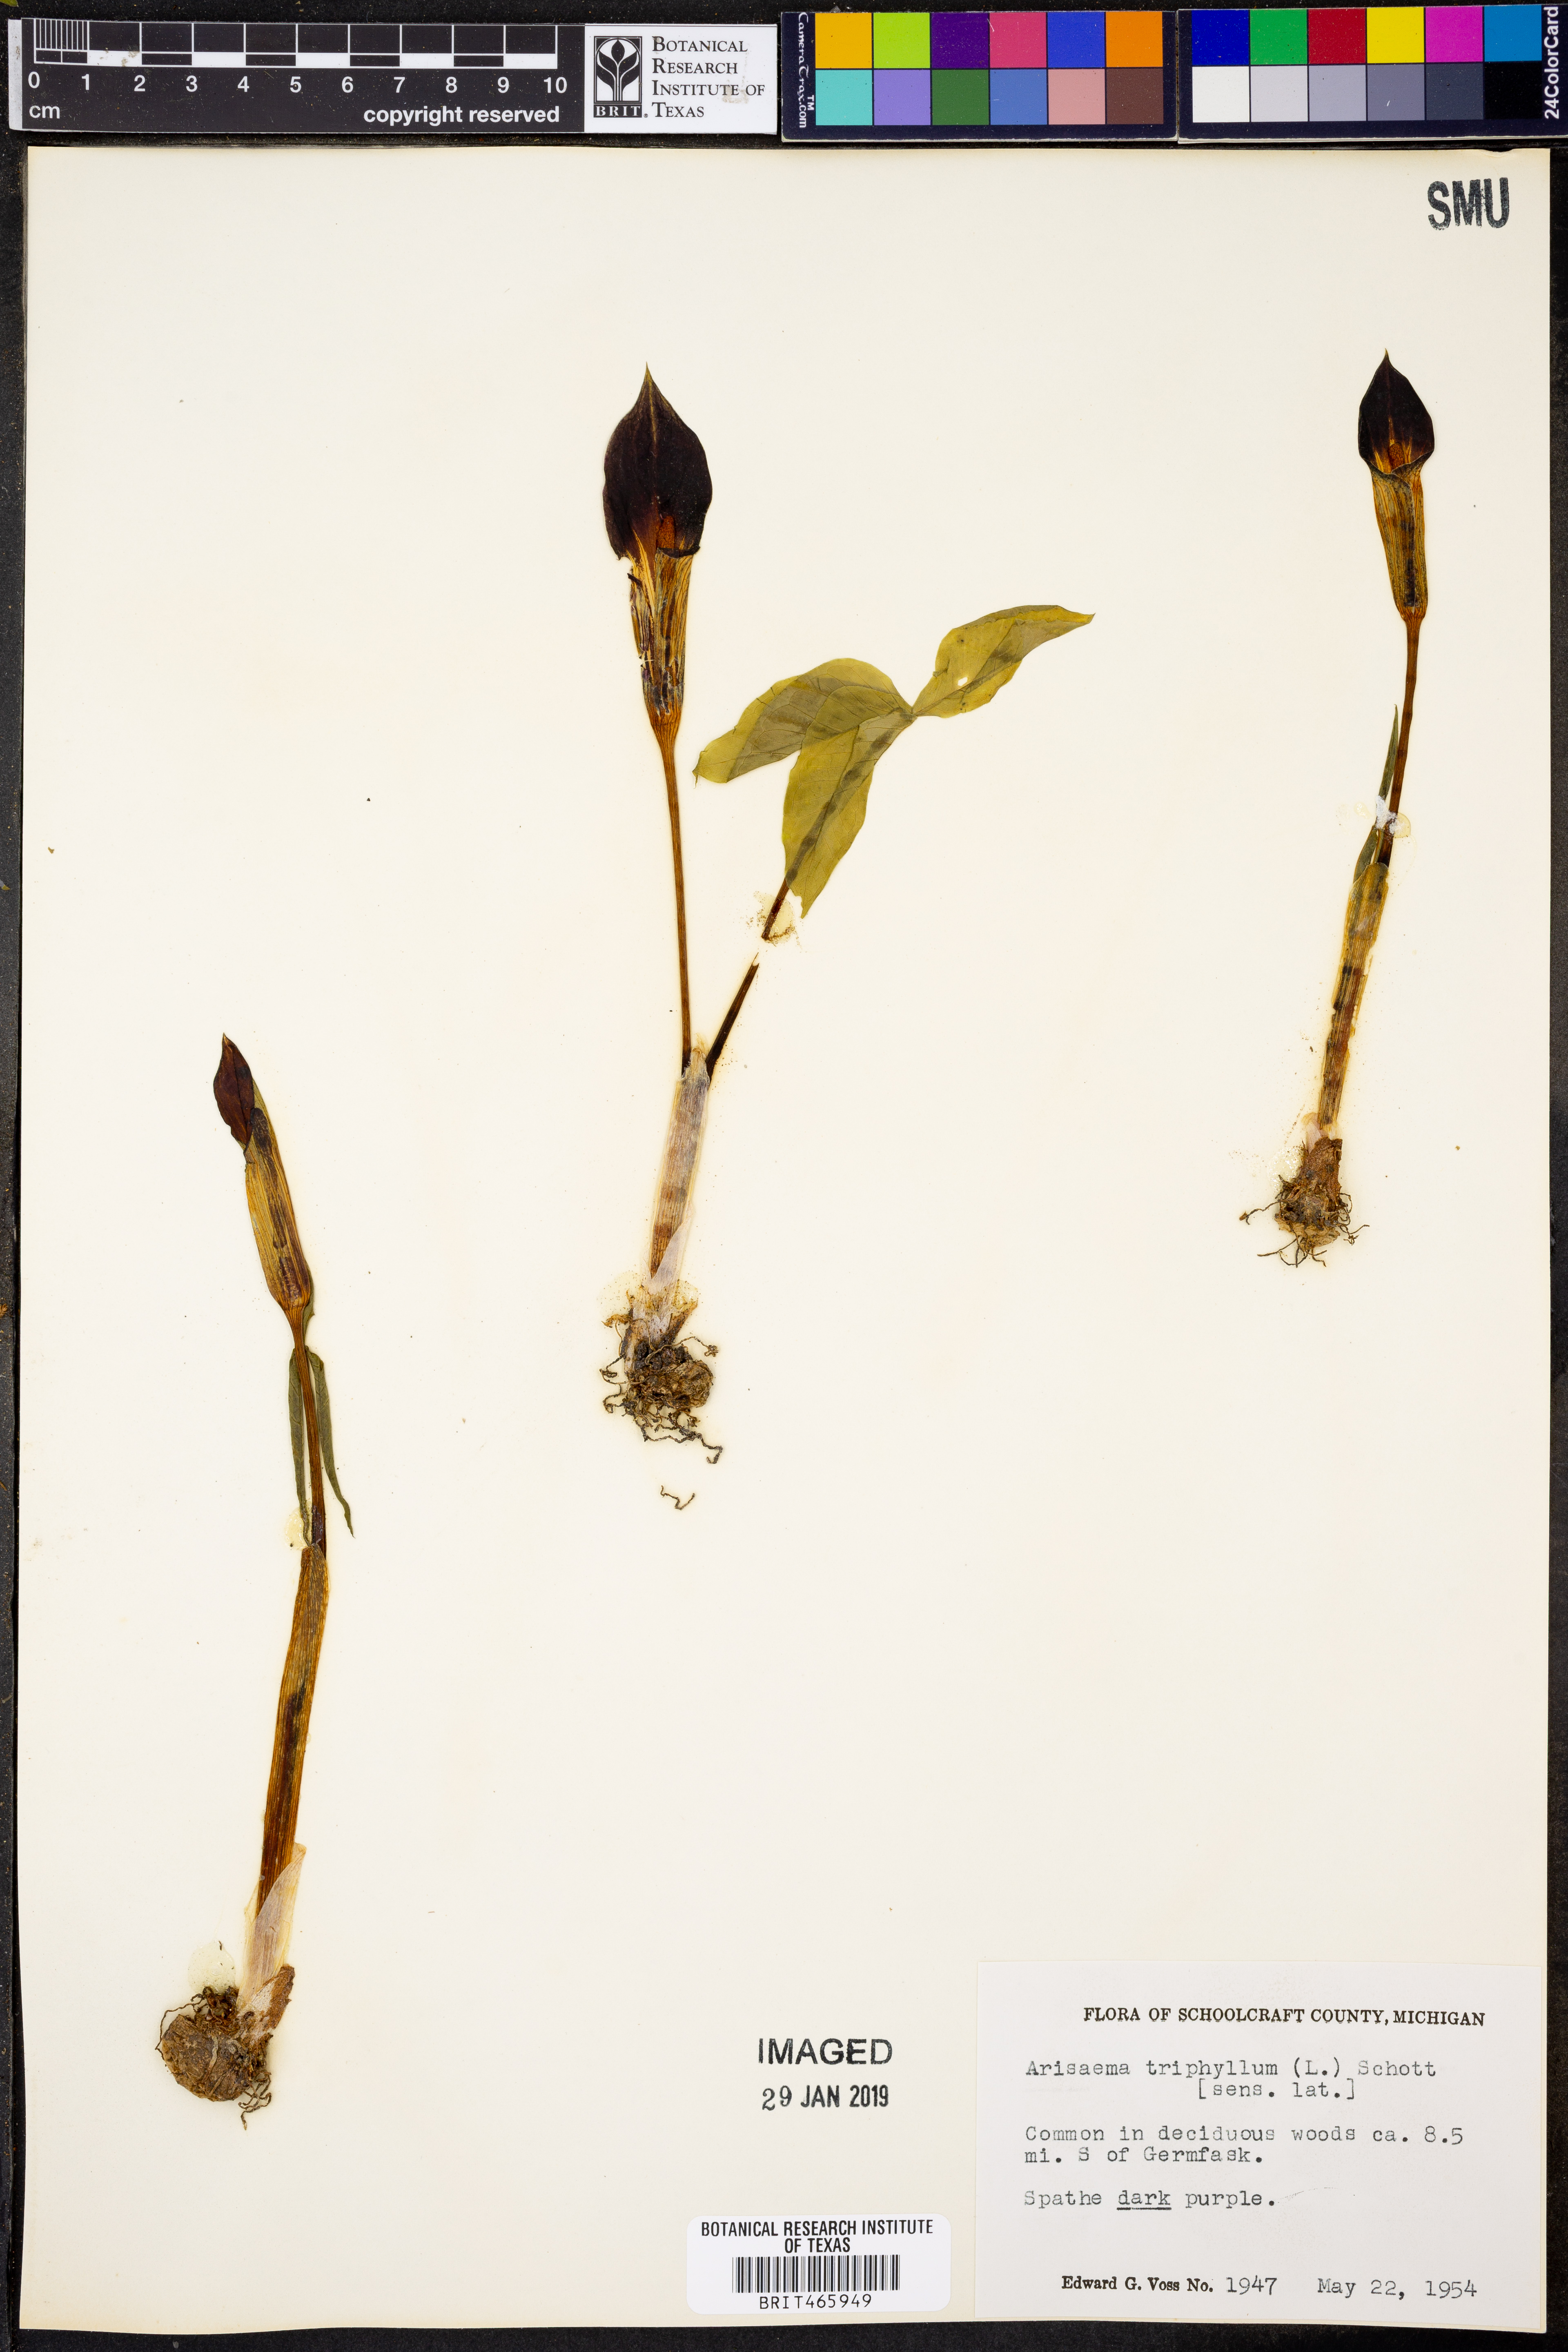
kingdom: Plantae
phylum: Tracheophyta
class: Liliopsida
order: Alismatales
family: Araceae
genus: Arisaema
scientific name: Arisaema triphyllum
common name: Jack-in-the-pulpit
